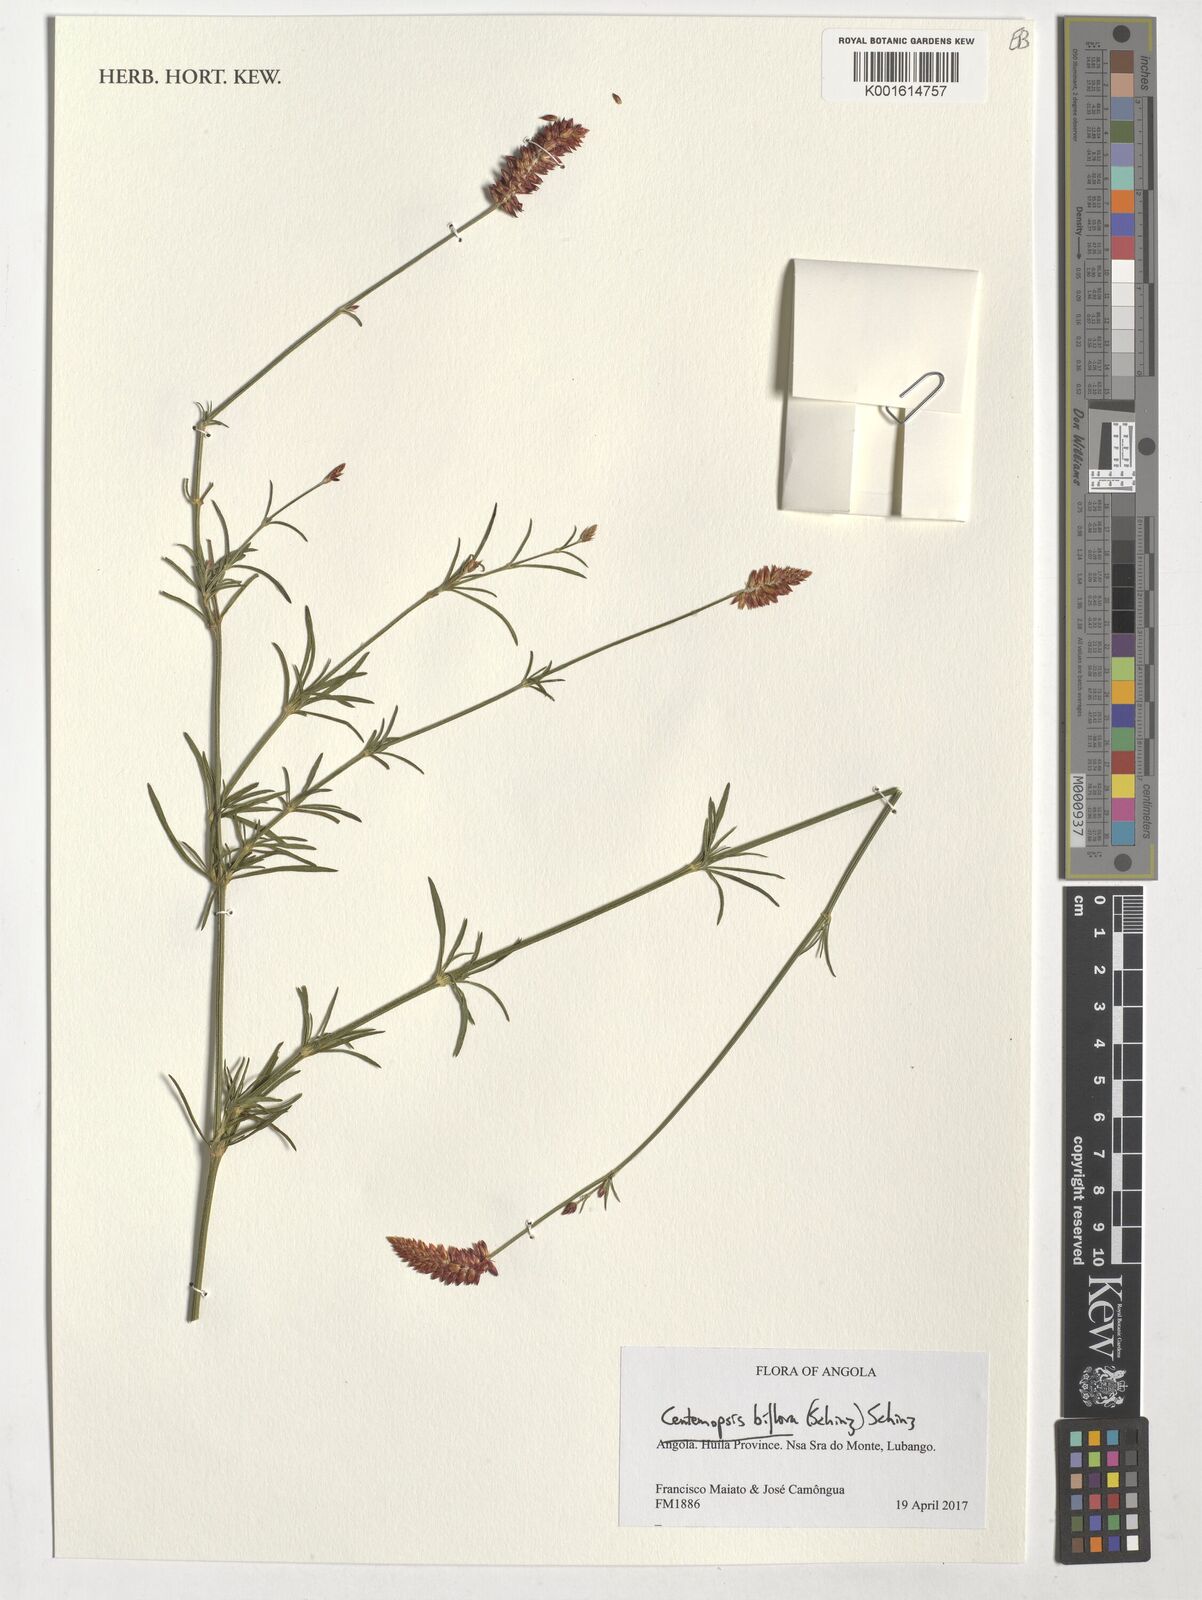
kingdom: Plantae
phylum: Tracheophyta
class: Magnoliopsida
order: Caryophyllales
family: Amaranthaceae
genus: Centemopsis
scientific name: Centemopsis biflora
